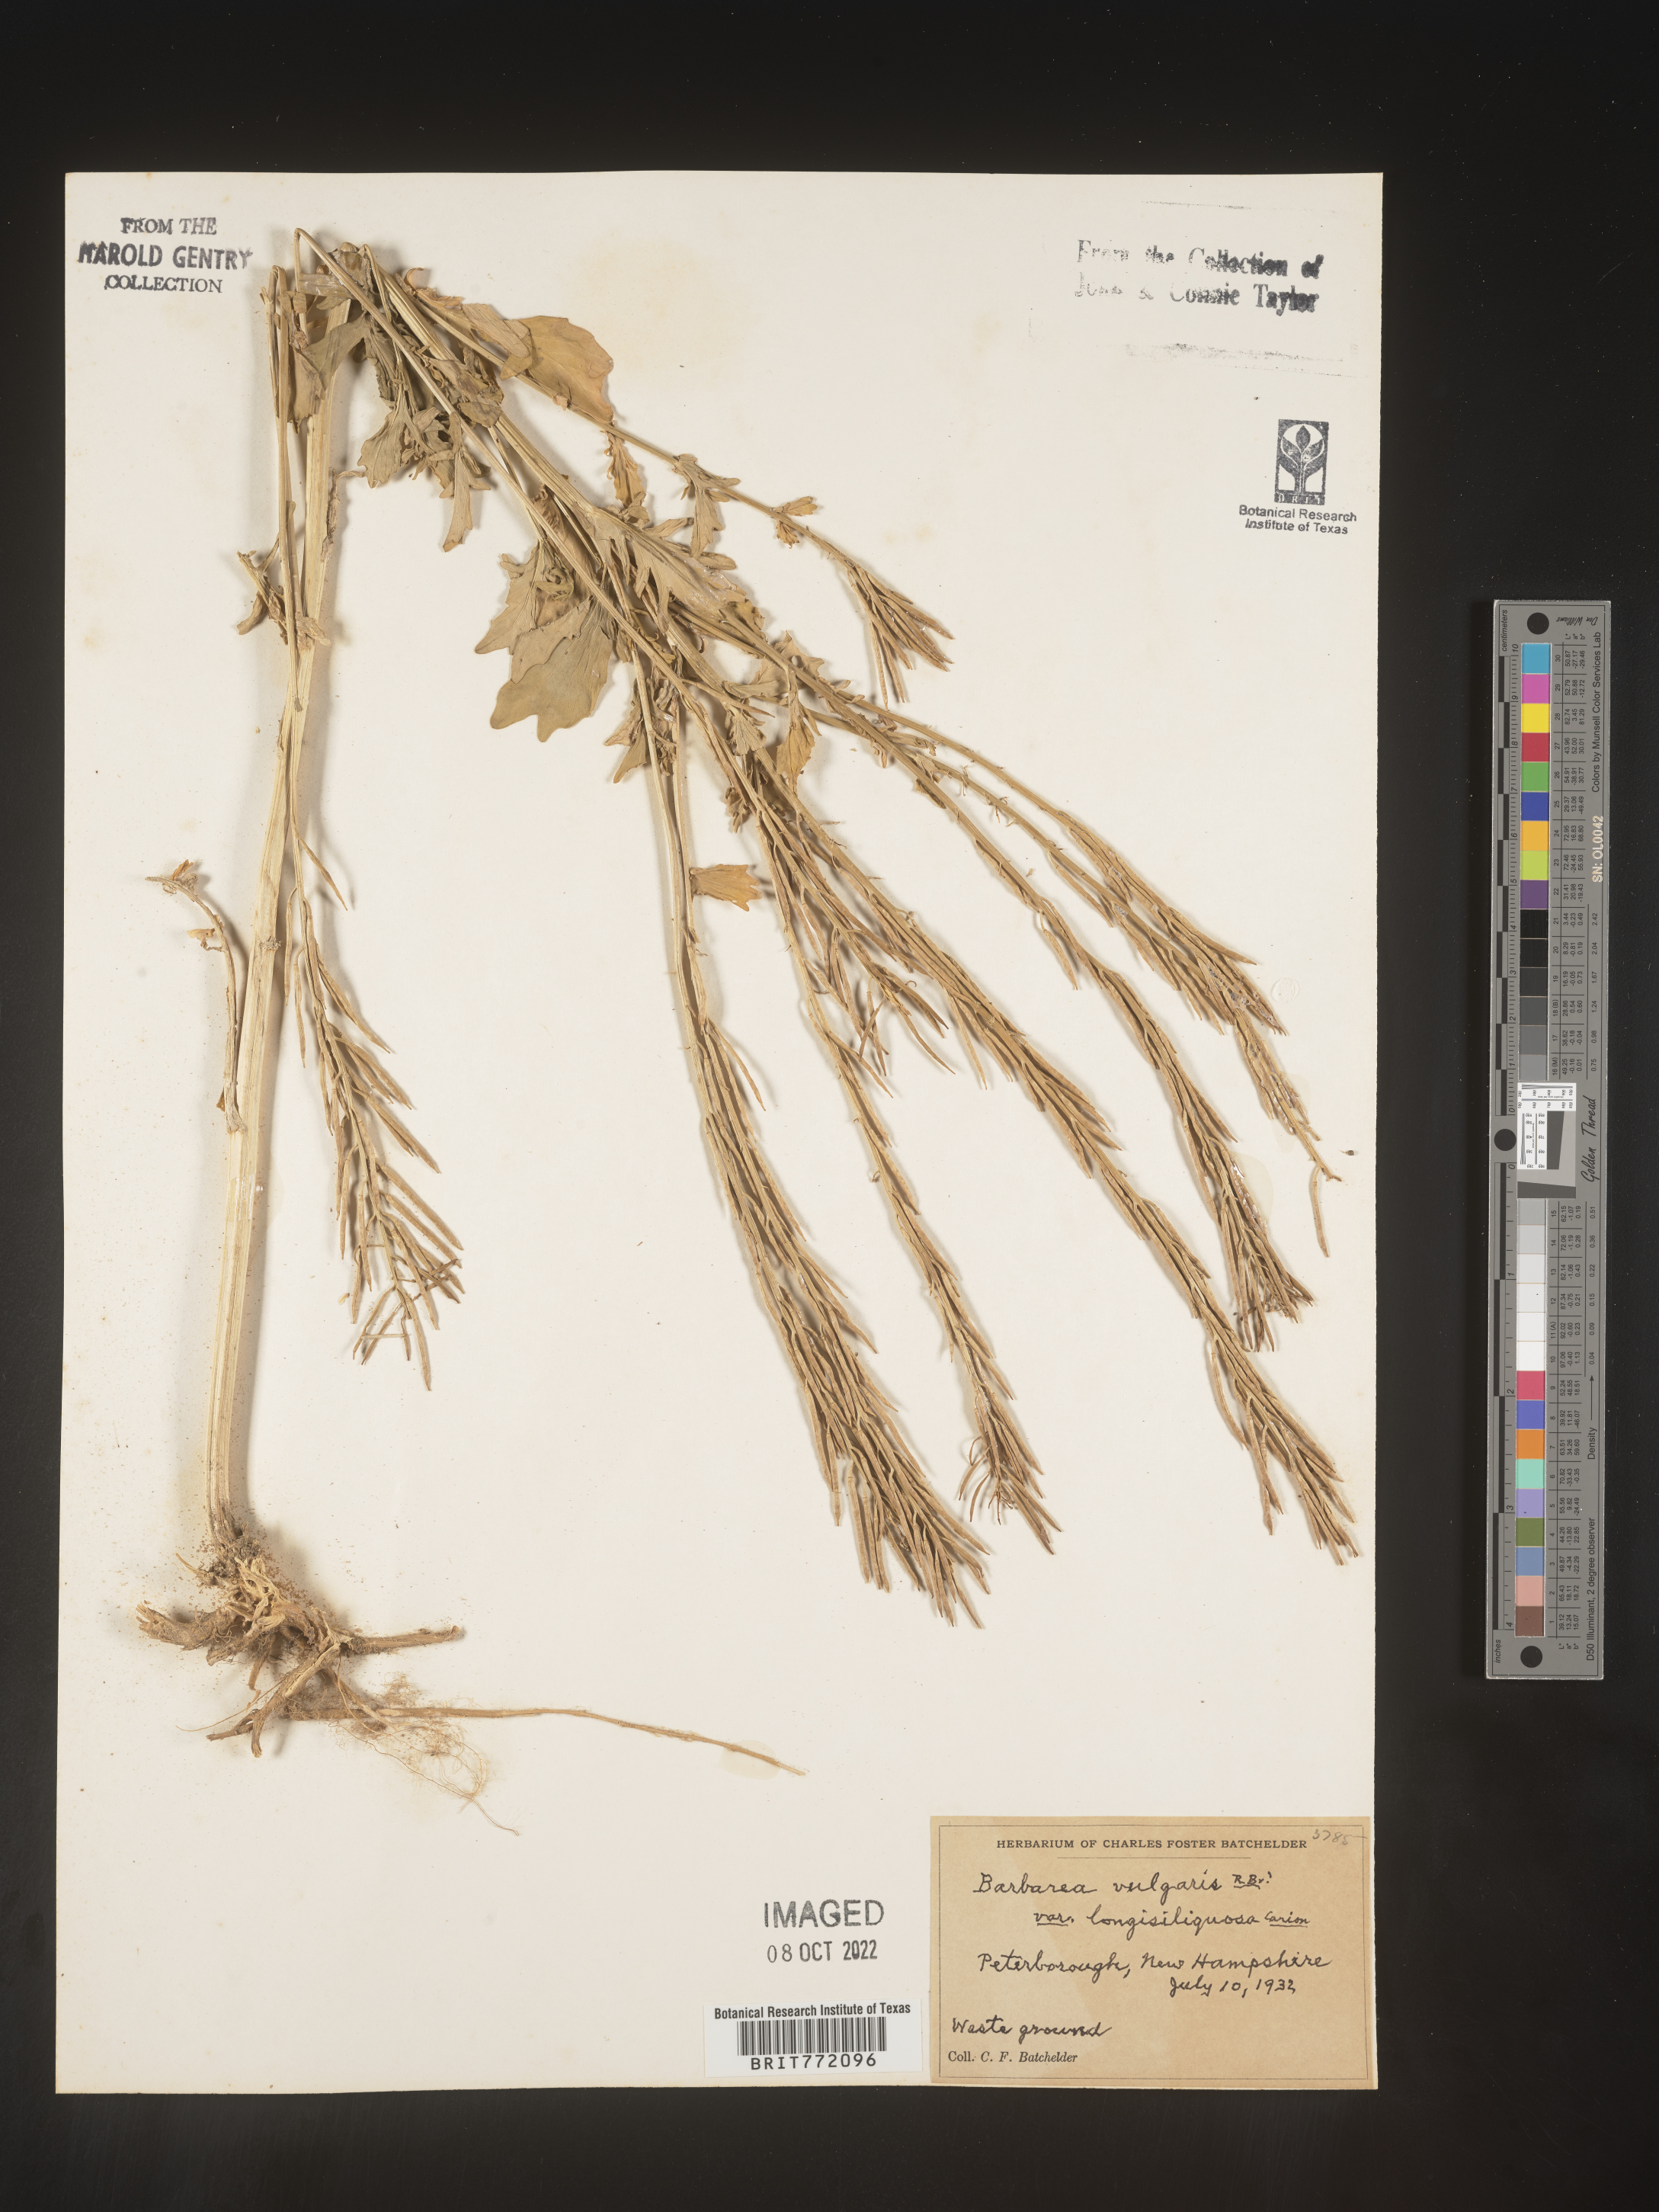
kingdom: Plantae
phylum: Tracheophyta
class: Magnoliopsida
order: Brassicales
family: Brassicaceae
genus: Barbarea
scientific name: Barbarea vulgaris
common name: Cressy-greens
